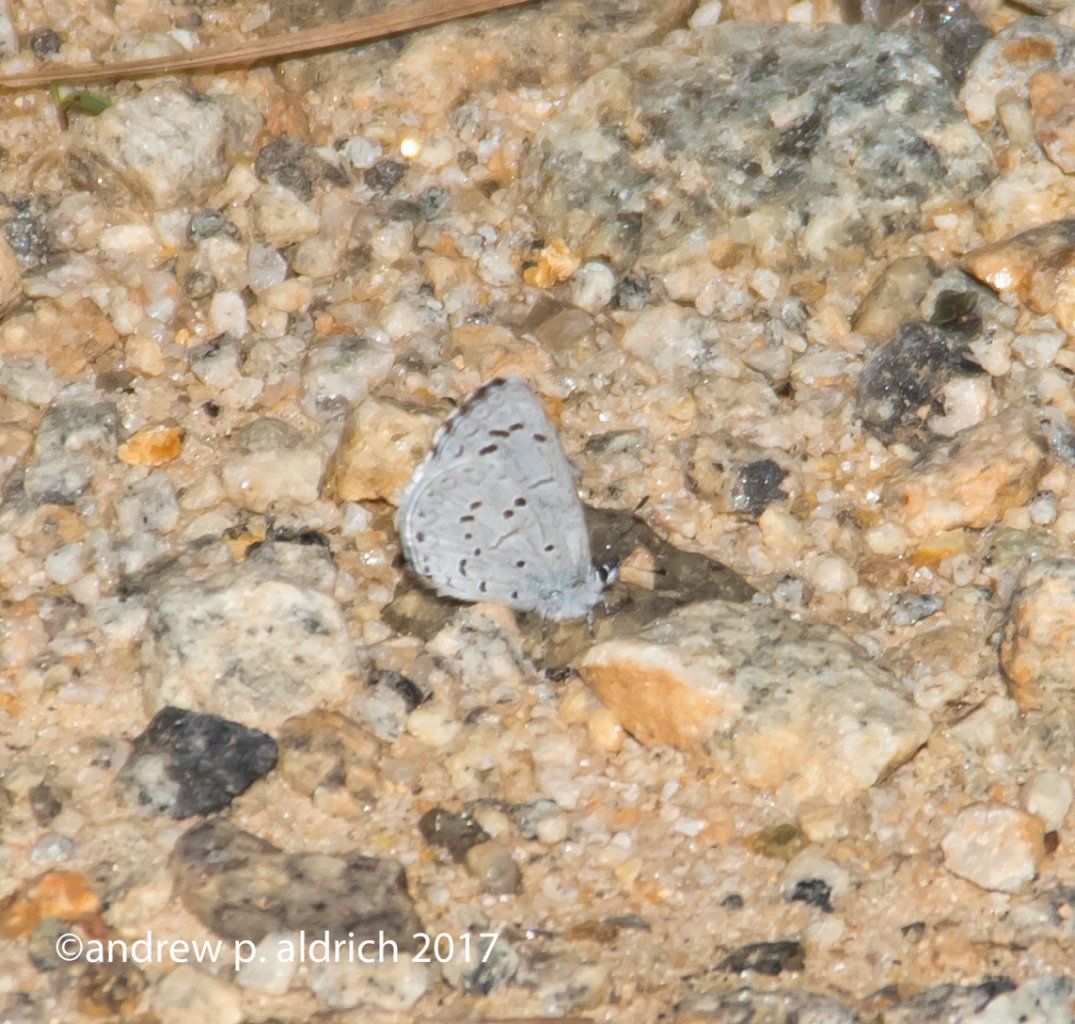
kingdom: Animalia
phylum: Arthropoda
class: Insecta
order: Lepidoptera
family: Lycaenidae
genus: Celastrina
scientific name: Celastrina ladon
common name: Spring Azure
